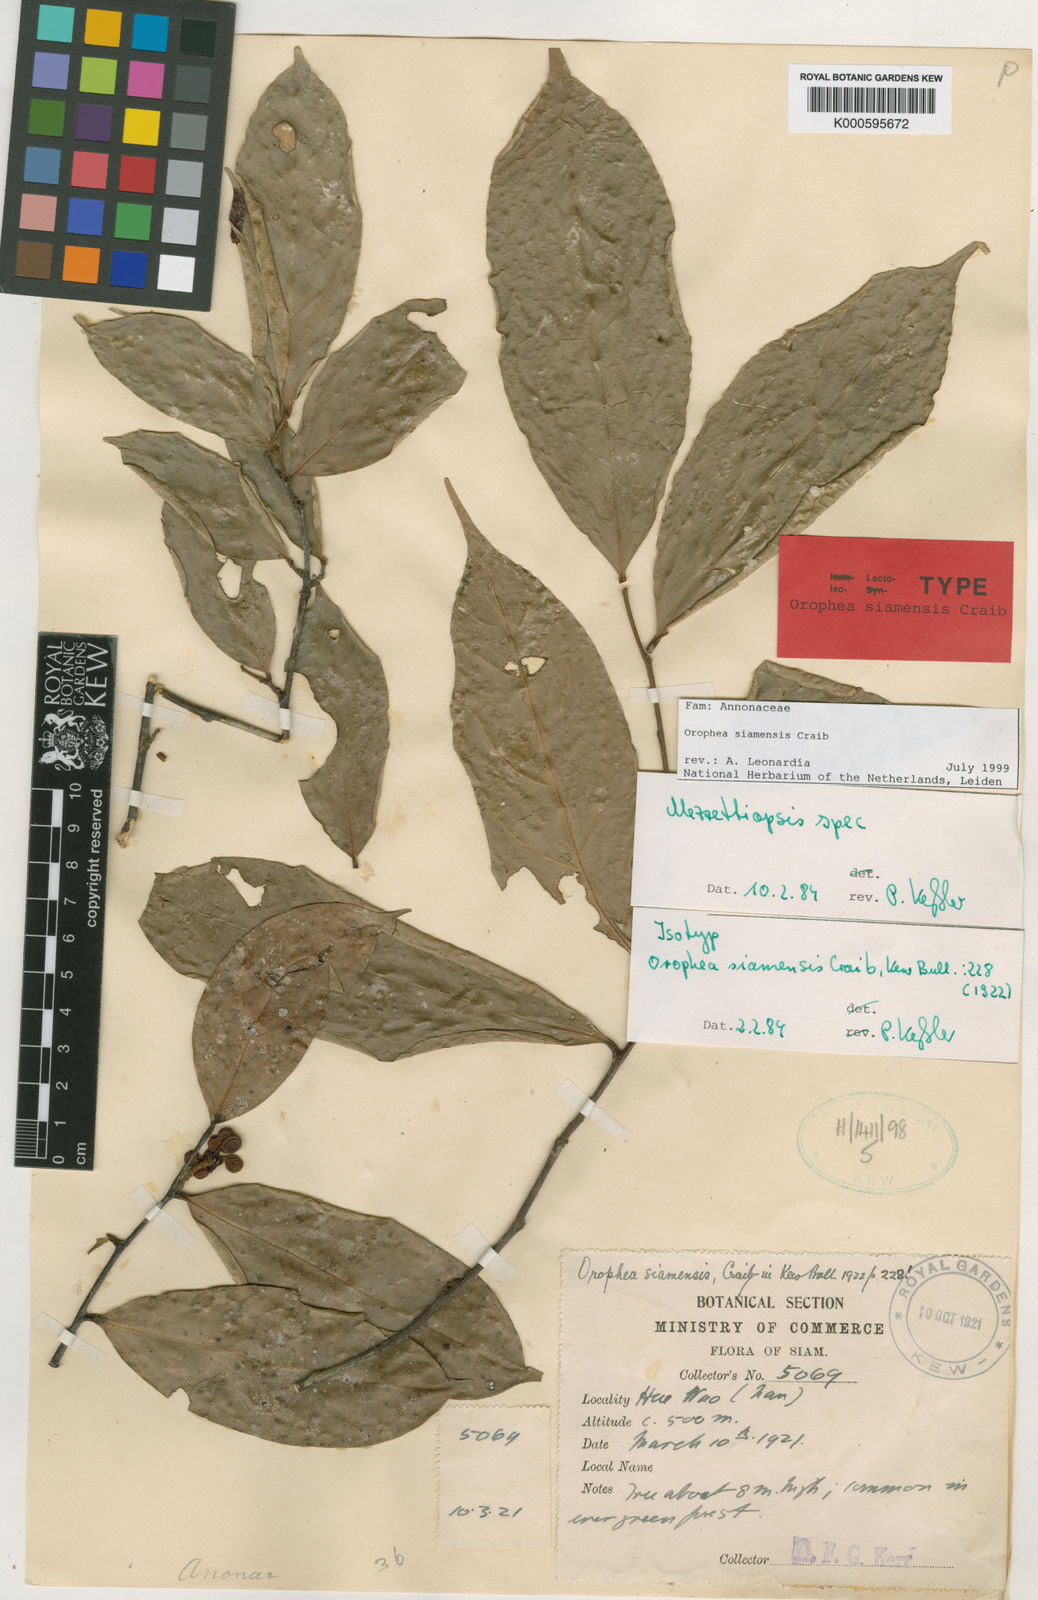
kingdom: Plantae
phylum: Tracheophyta
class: Magnoliopsida
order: Magnoliales
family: Annonaceae
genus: Orophea
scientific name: Orophea siamensis
